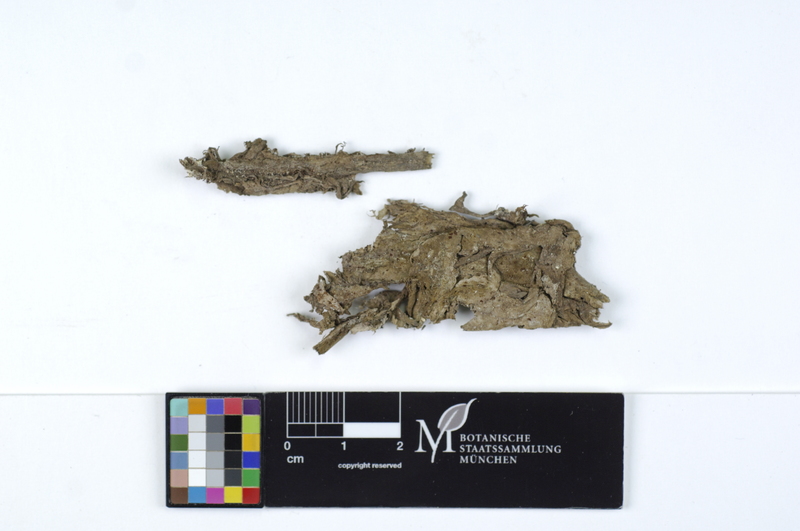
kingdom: Fungi
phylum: Basidiomycota
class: Agaricomycetes
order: Boletales
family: Coniophoraceae
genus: Coniophora
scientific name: Coniophora marmorata
